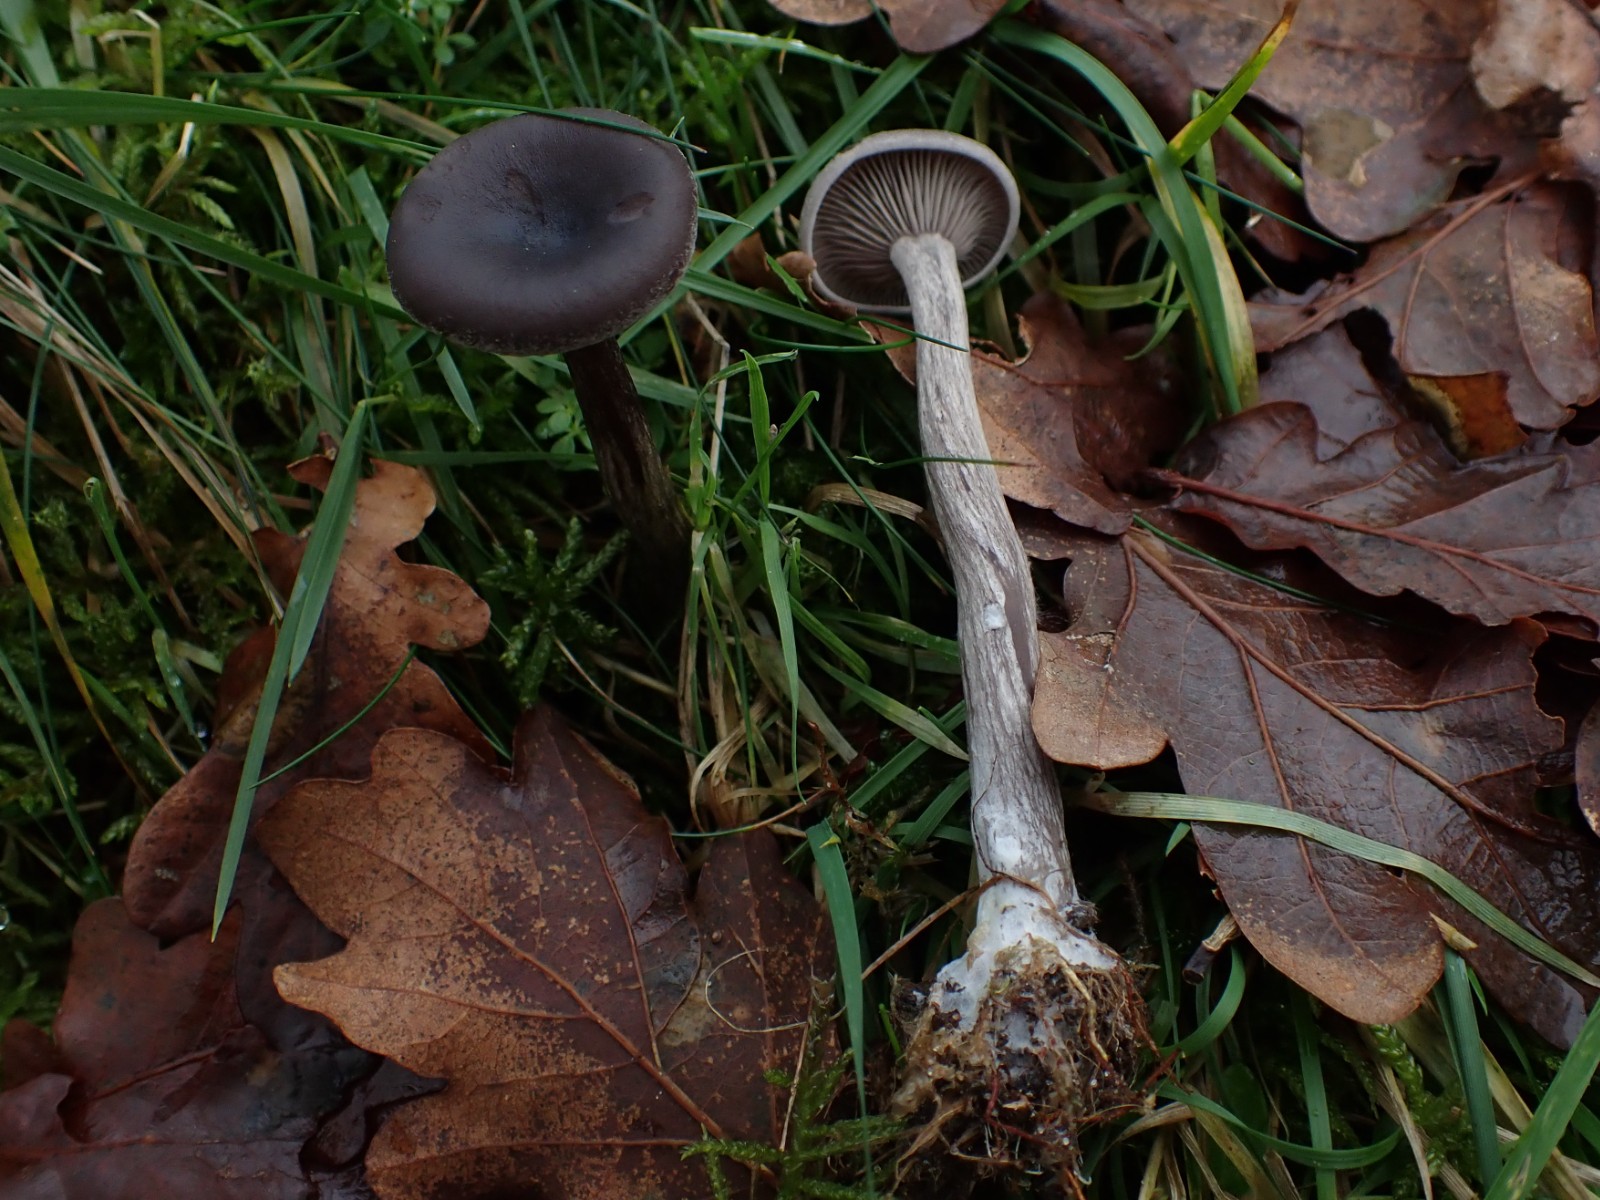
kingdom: Fungi
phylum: Basidiomycota
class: Agaricomycetes
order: Agaricales
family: Pseudoclitocybaceae
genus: Pseudoclitocybe
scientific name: Pseudoclitocybe cyathiformis
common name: almindelig bægertragthat
